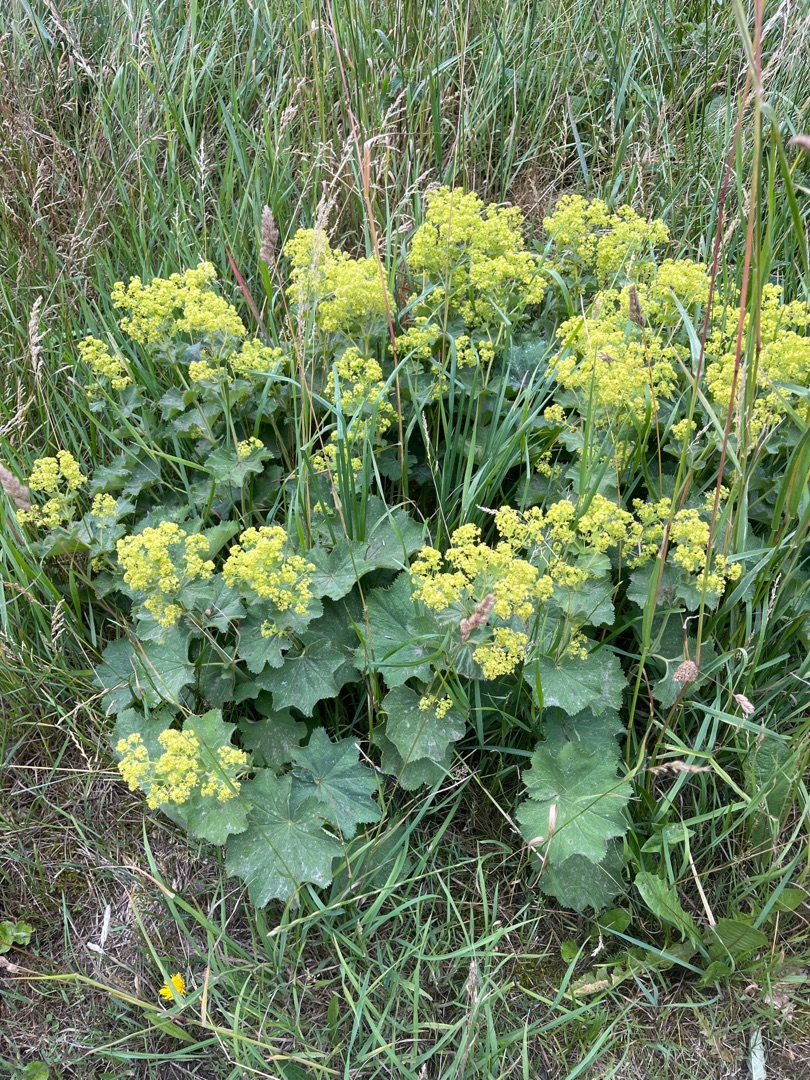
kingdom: Plantae
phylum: Tracheophyta
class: Magnoliopsida
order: Rosales
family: Rosaceae
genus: Alchemilla
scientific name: Alchemilla mollis
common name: Lådden løvefod
